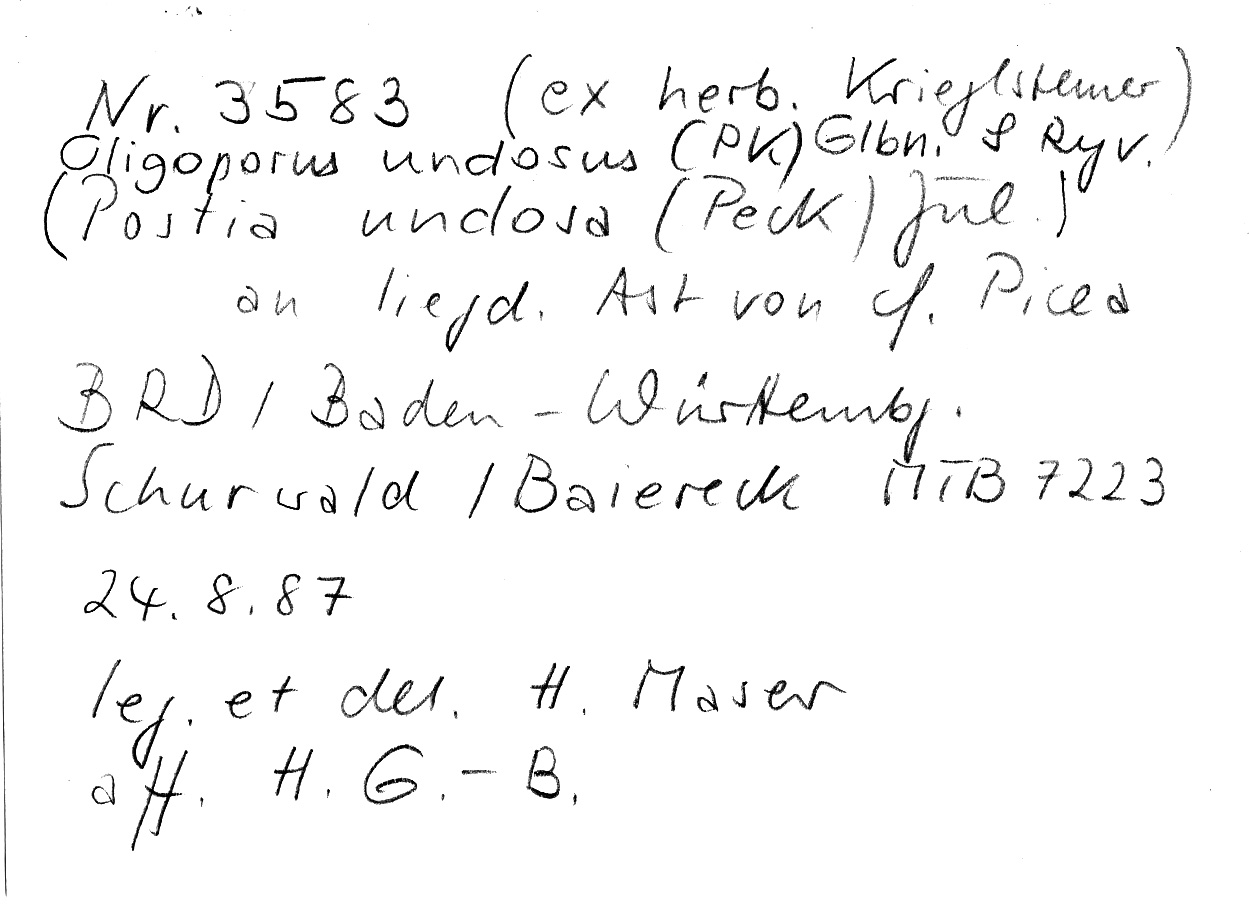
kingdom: Plantae
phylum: Tracheophyta
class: Pinopsida
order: Pinales
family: Pinaceae
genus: Picea
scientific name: Picea
